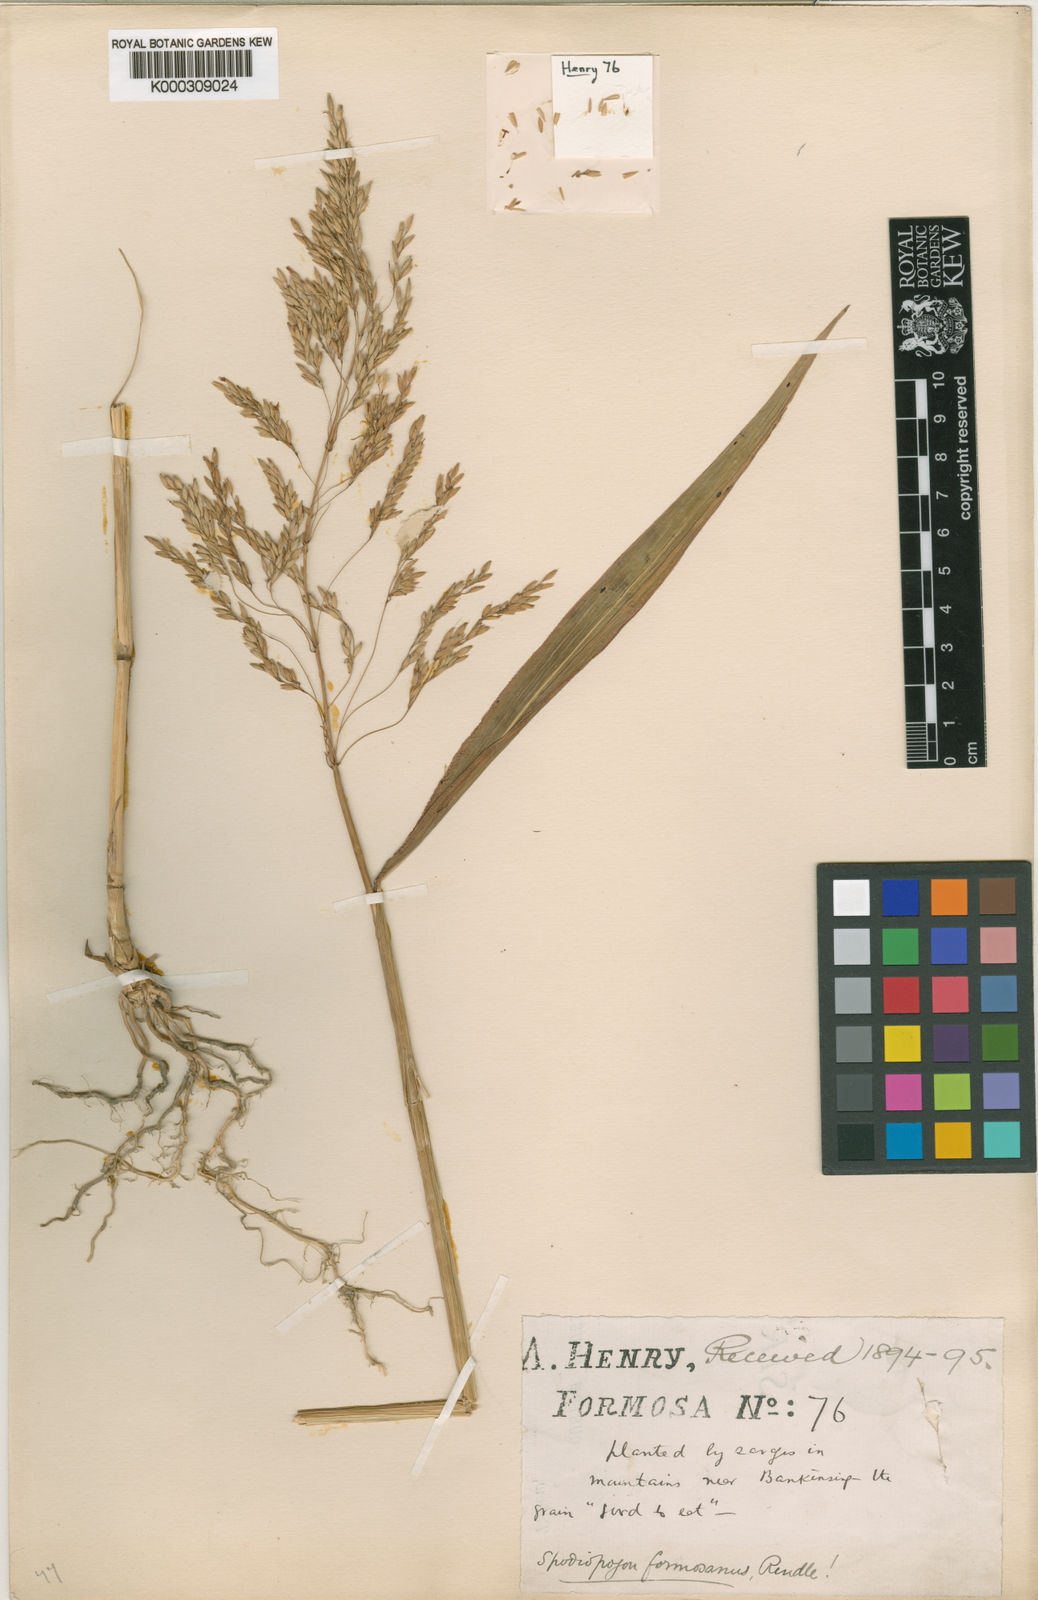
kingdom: Plantae
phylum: Tracheophyta
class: Liliopsida
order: Poales
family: Poaceae
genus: Spodiopogon
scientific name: Spodiopogon formosanus
